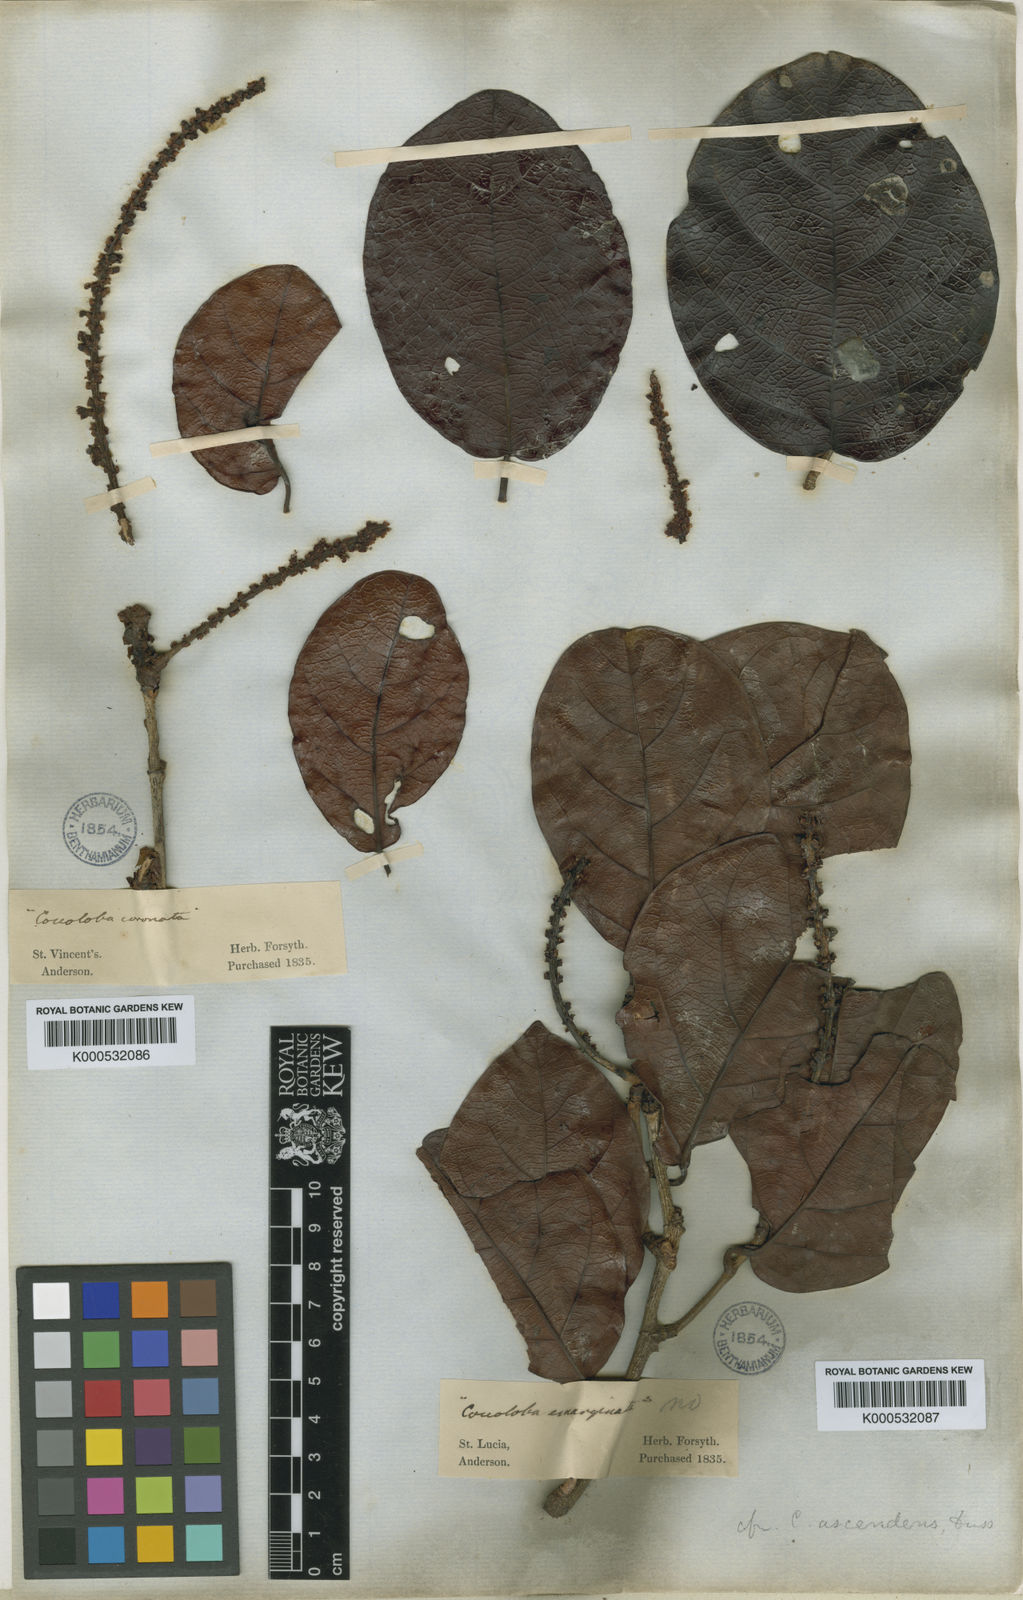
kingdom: Plantae
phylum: Tracheophyta
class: Magnoliopsida
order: Caryophyllales
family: Polygonaceae
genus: Coccoloba
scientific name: Coccoloba
